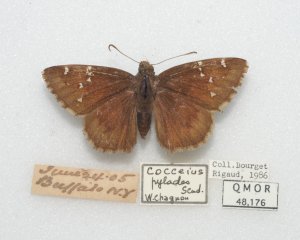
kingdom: Animalia
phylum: Arthropoda
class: Insecta
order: Lepidoptera
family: Hesperiidae
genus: Autochton
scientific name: Autochton
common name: Northern Cloudywing
